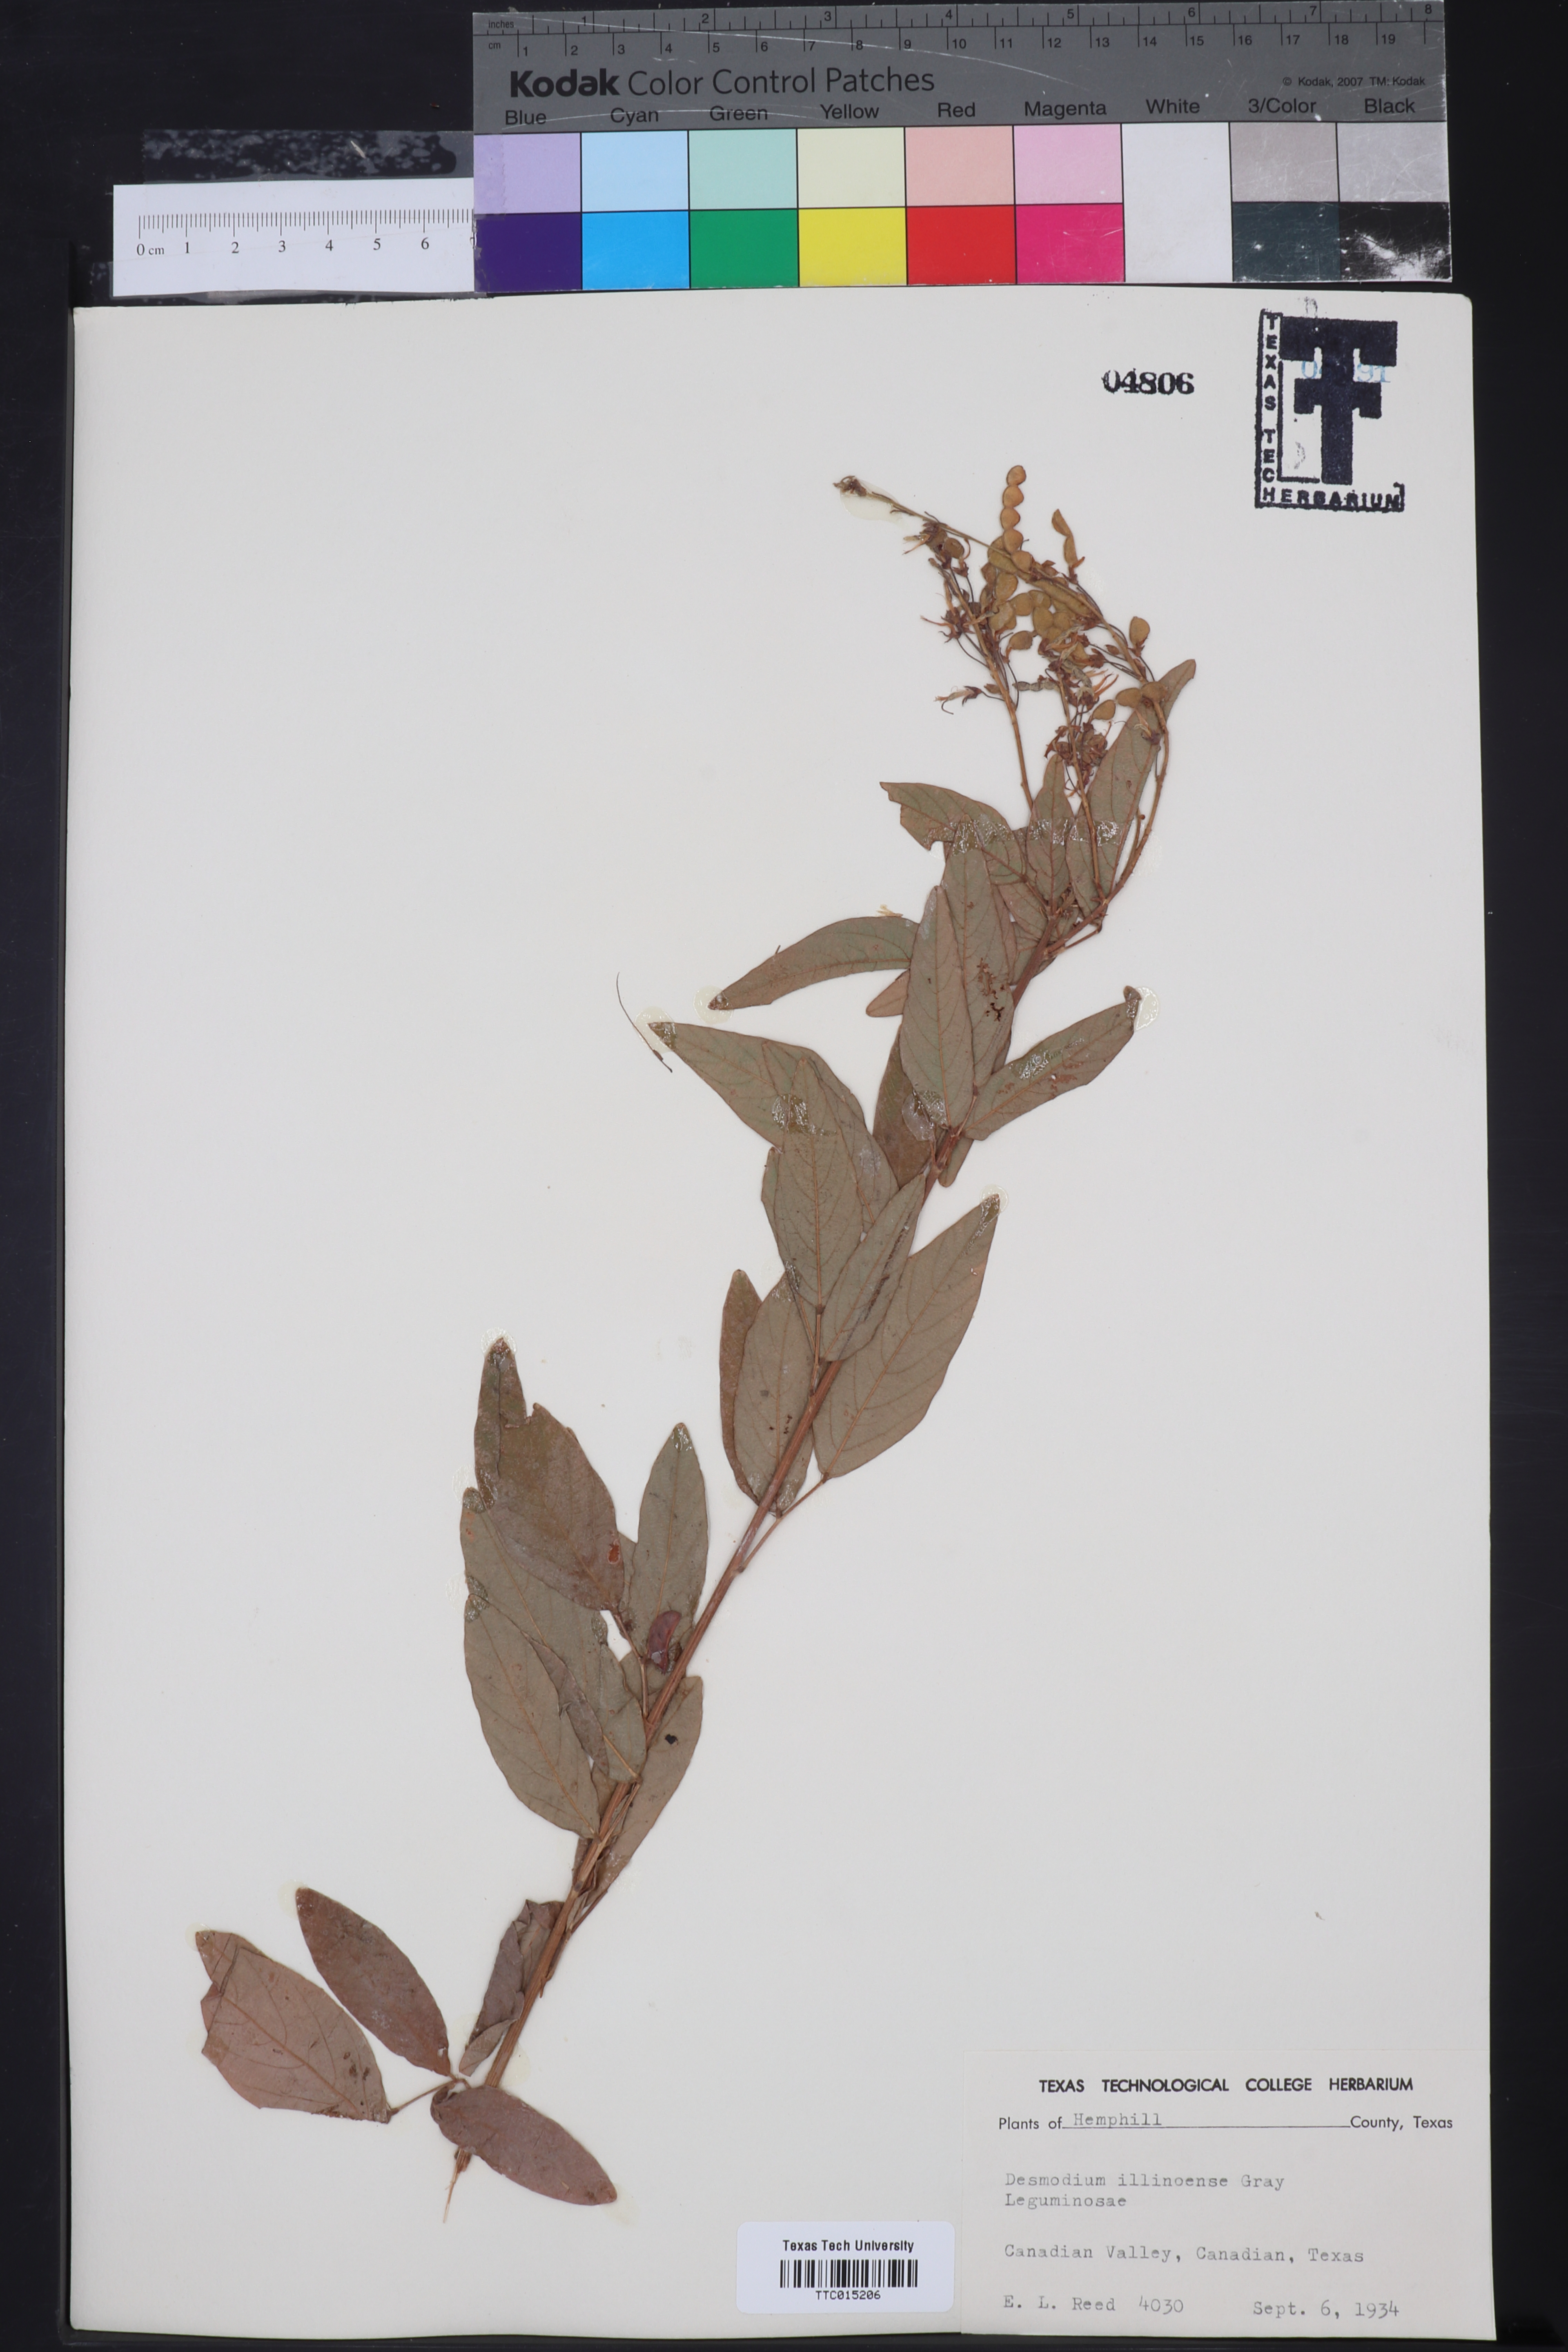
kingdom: Plantae
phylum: Tracheophyta
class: Magnoliopsida
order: Fabales
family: Fabaceae
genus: Desmodium
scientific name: Desmodium illinoense
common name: Illinois tick-clover
